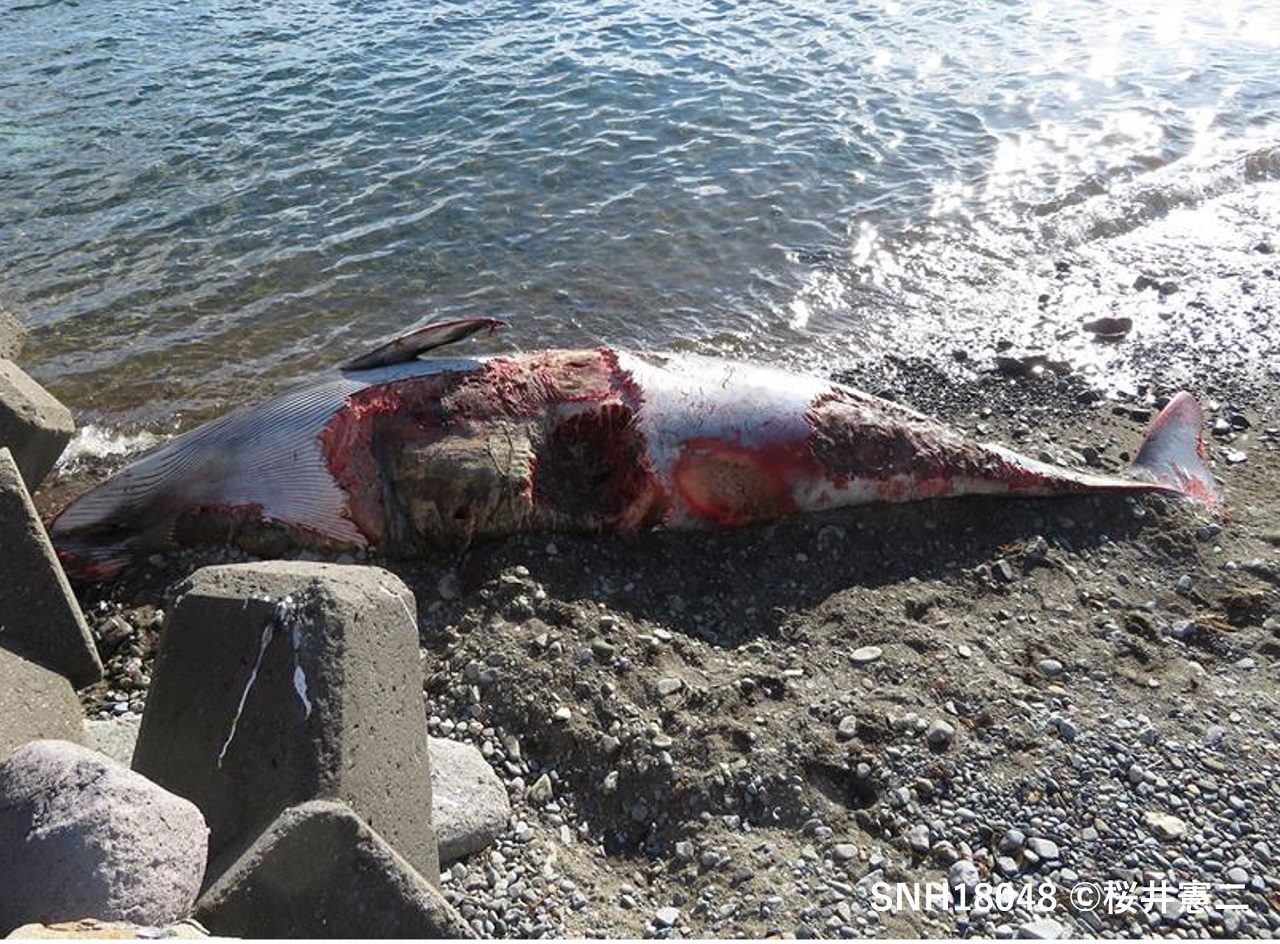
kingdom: Animalia
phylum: Chordata
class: Mammalia
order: Cetacea
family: Balaenopteridae
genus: Balaenoptera
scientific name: Balaenoptera acutorostrata
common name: Minke whale
